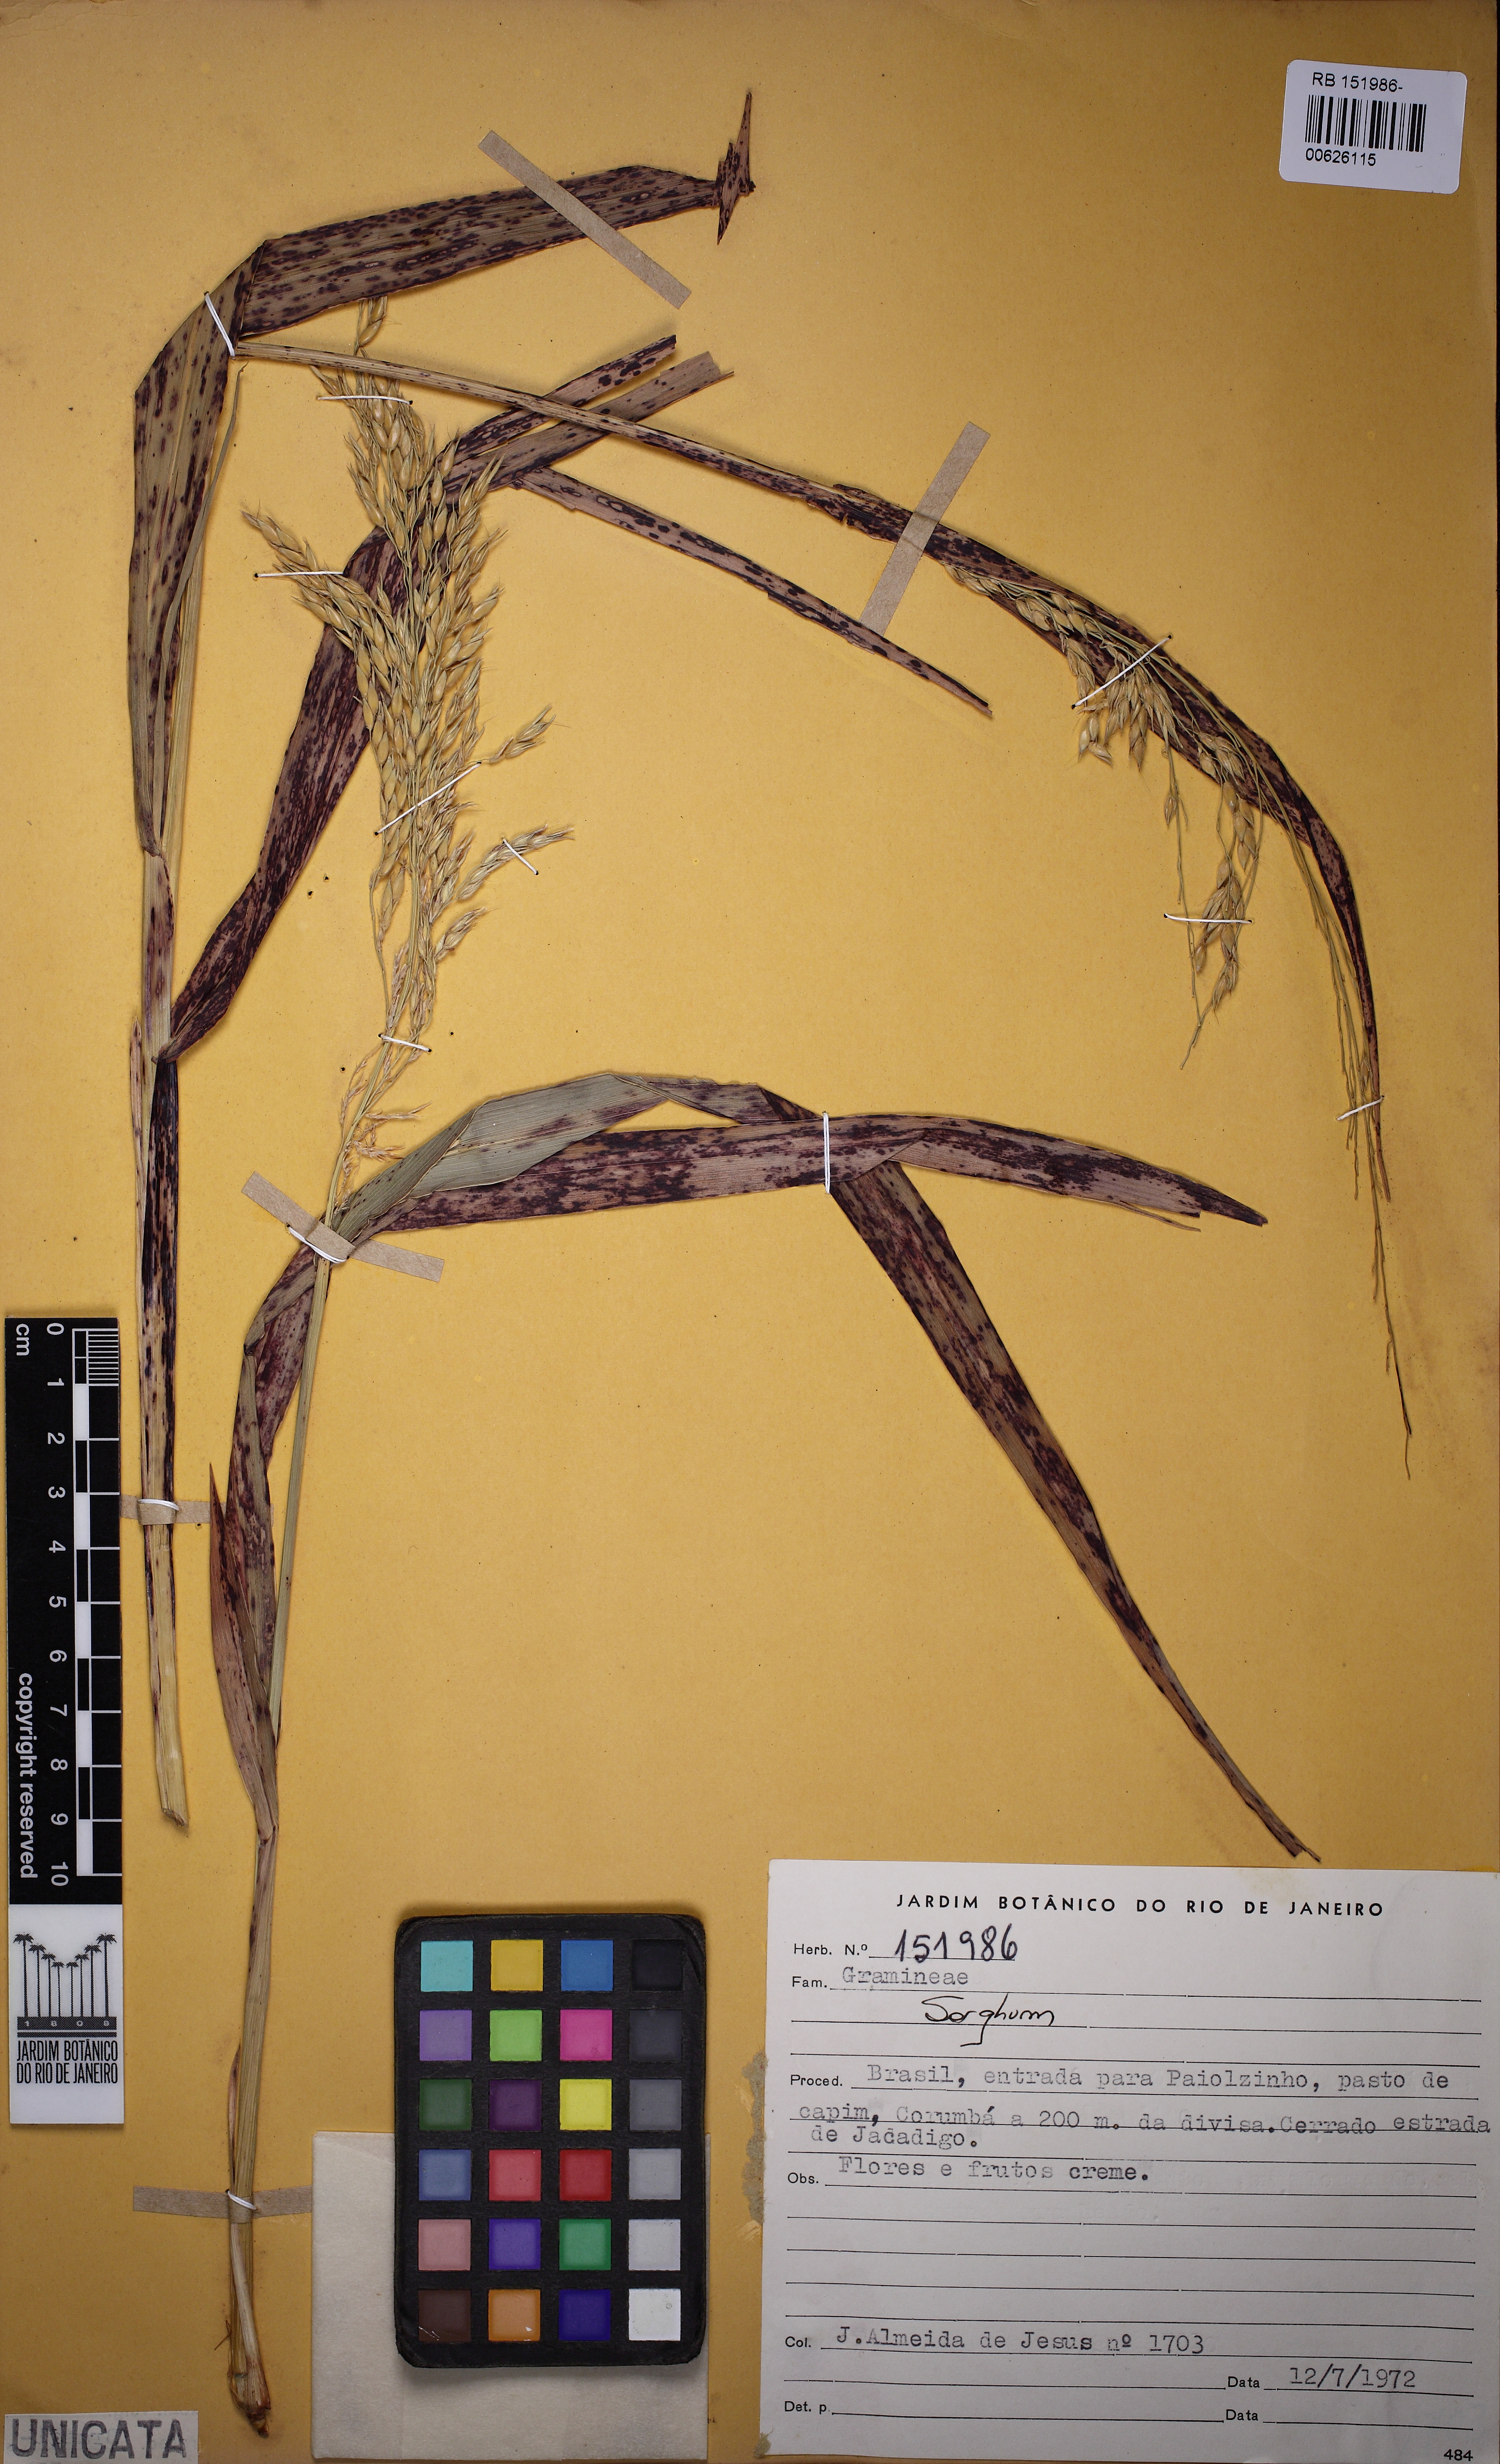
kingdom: Plantae
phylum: Tracheophyta
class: Liliopsida
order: Poales
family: Poaceae
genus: Sorghum
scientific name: Sorghum
